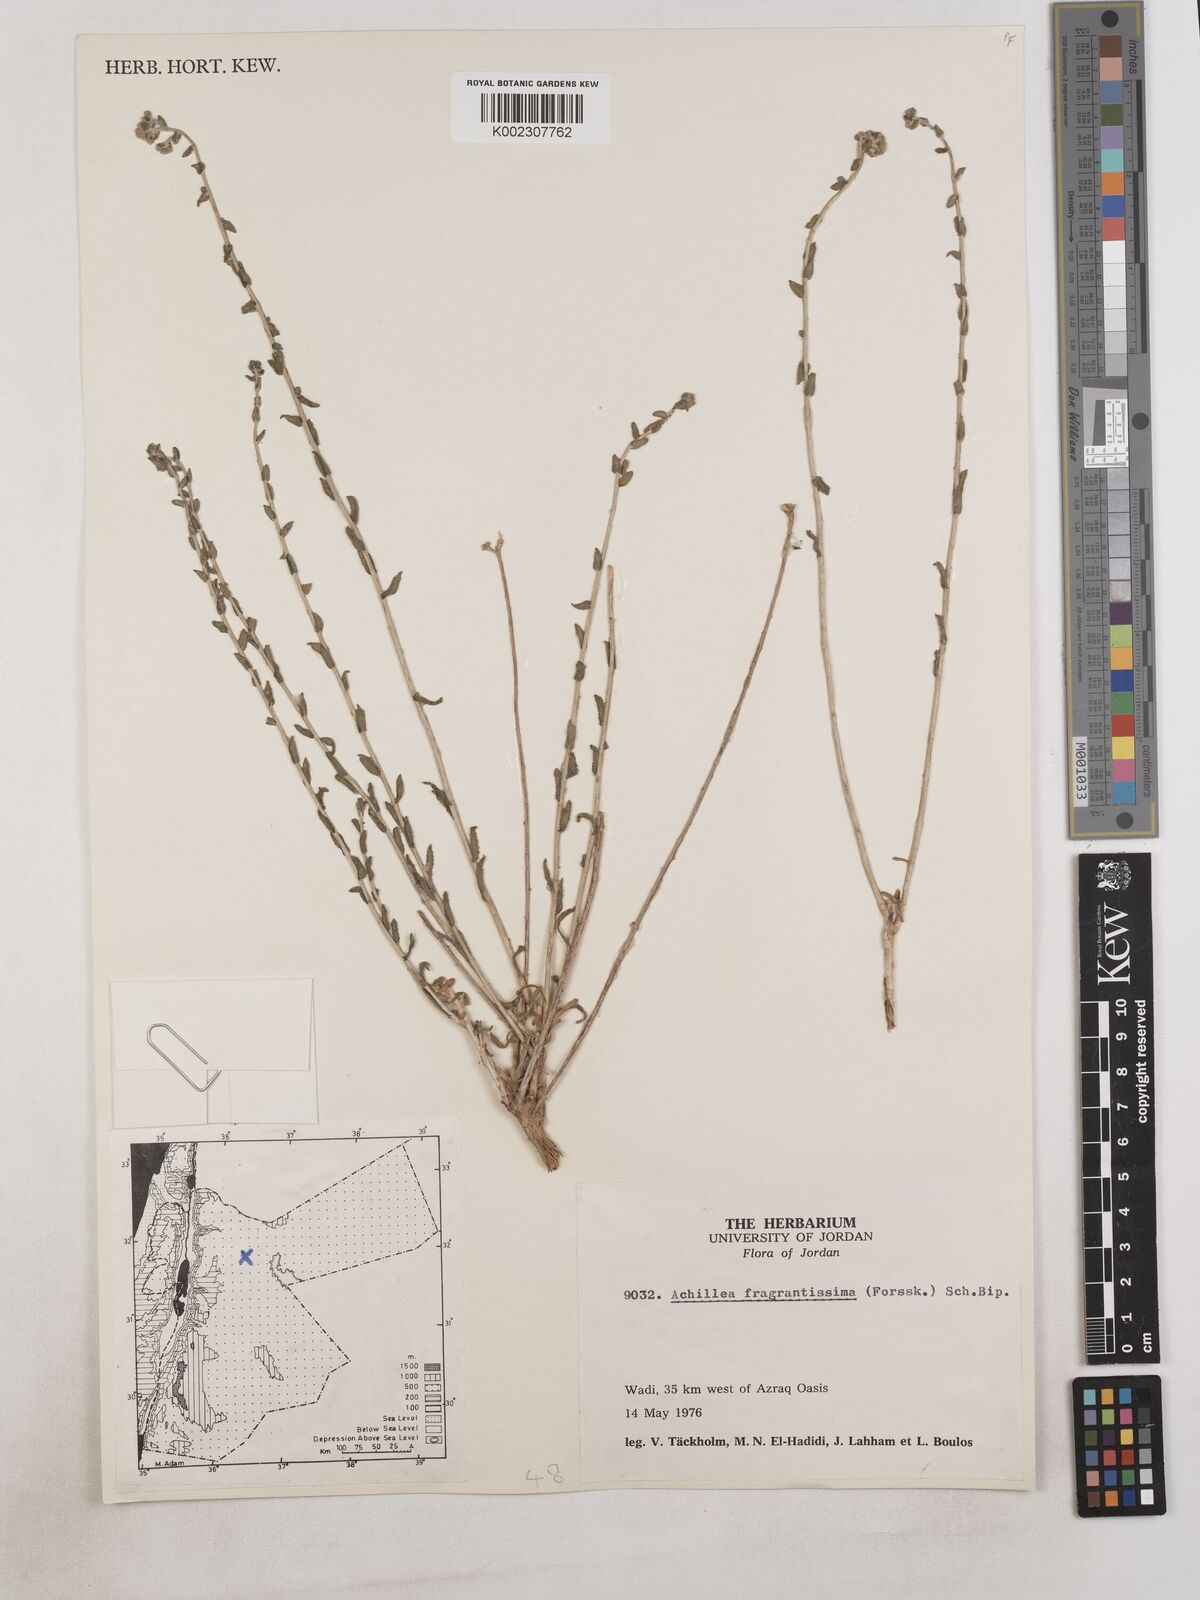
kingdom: Plantae
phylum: Tracheophyta
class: Magnoliopsida
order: Asterales
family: Asteraceae
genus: Achillea
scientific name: Achillea fragrantissima
